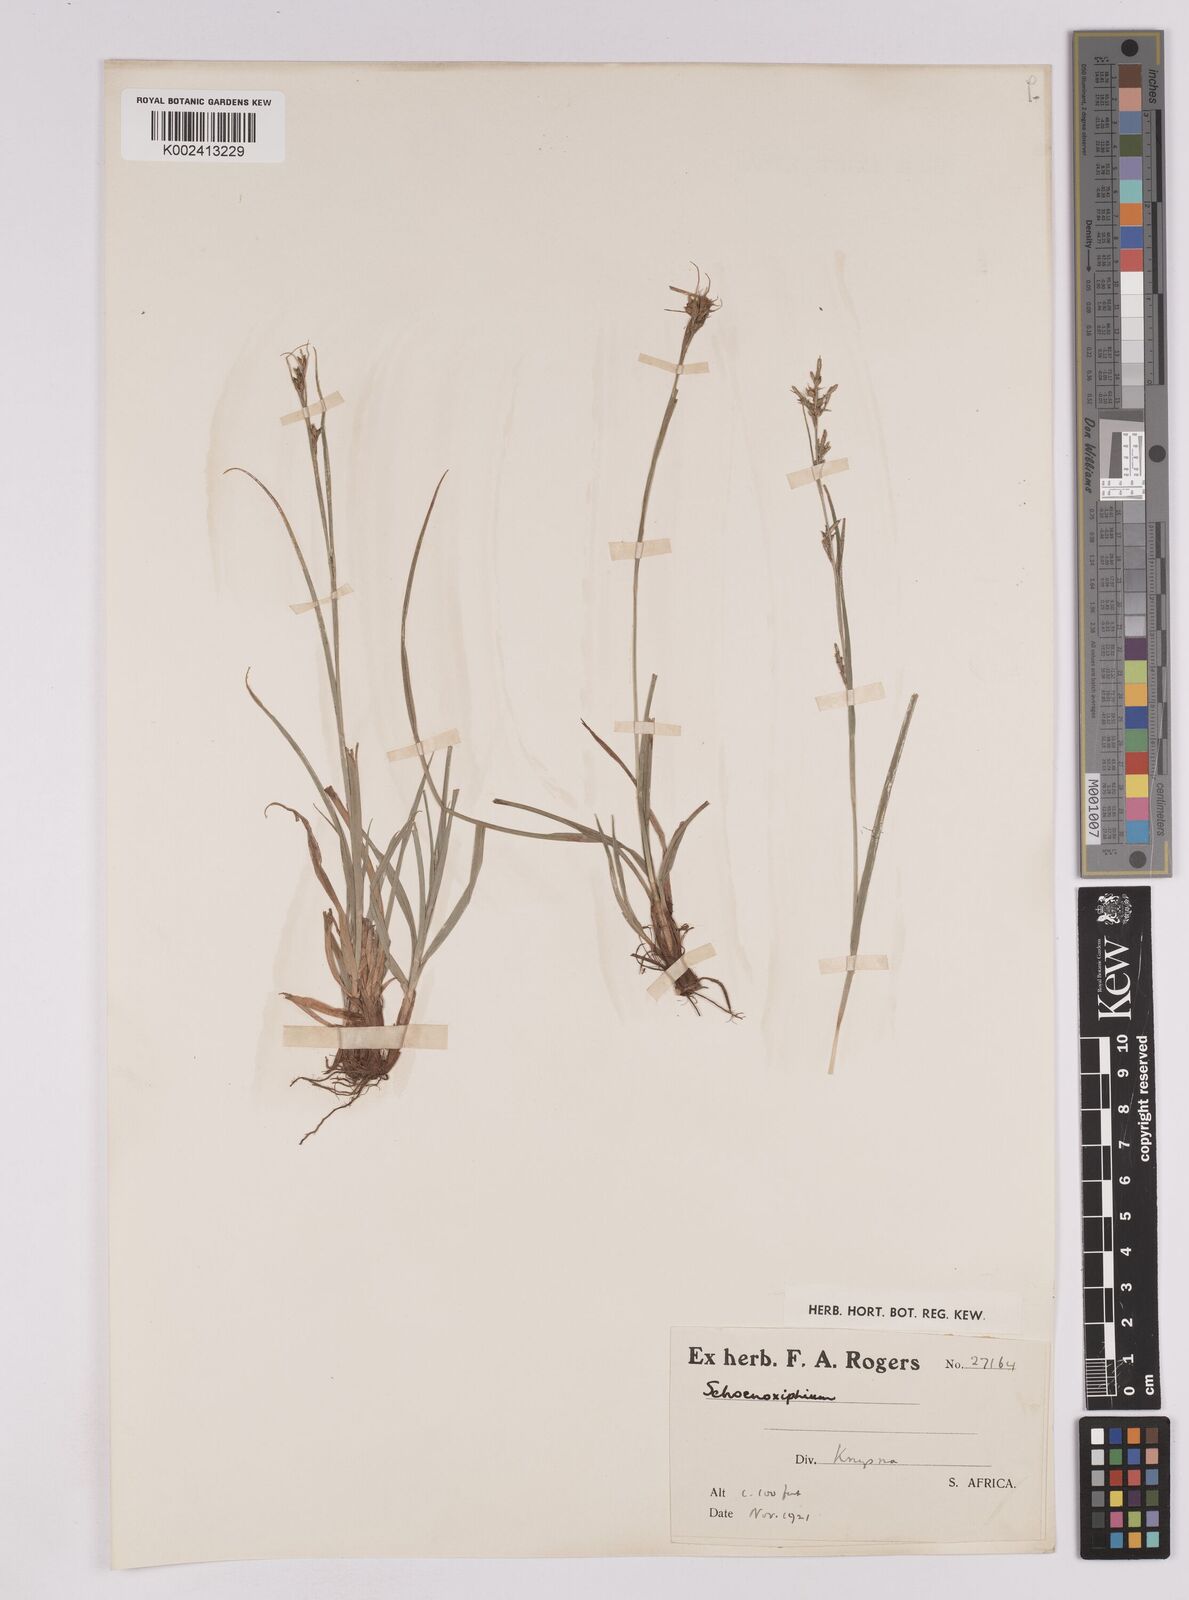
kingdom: Plantae
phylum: Tracheophyta
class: Liliopsida
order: Poales
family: Cyperaceae
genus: Carex
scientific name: Carex schimperiana
